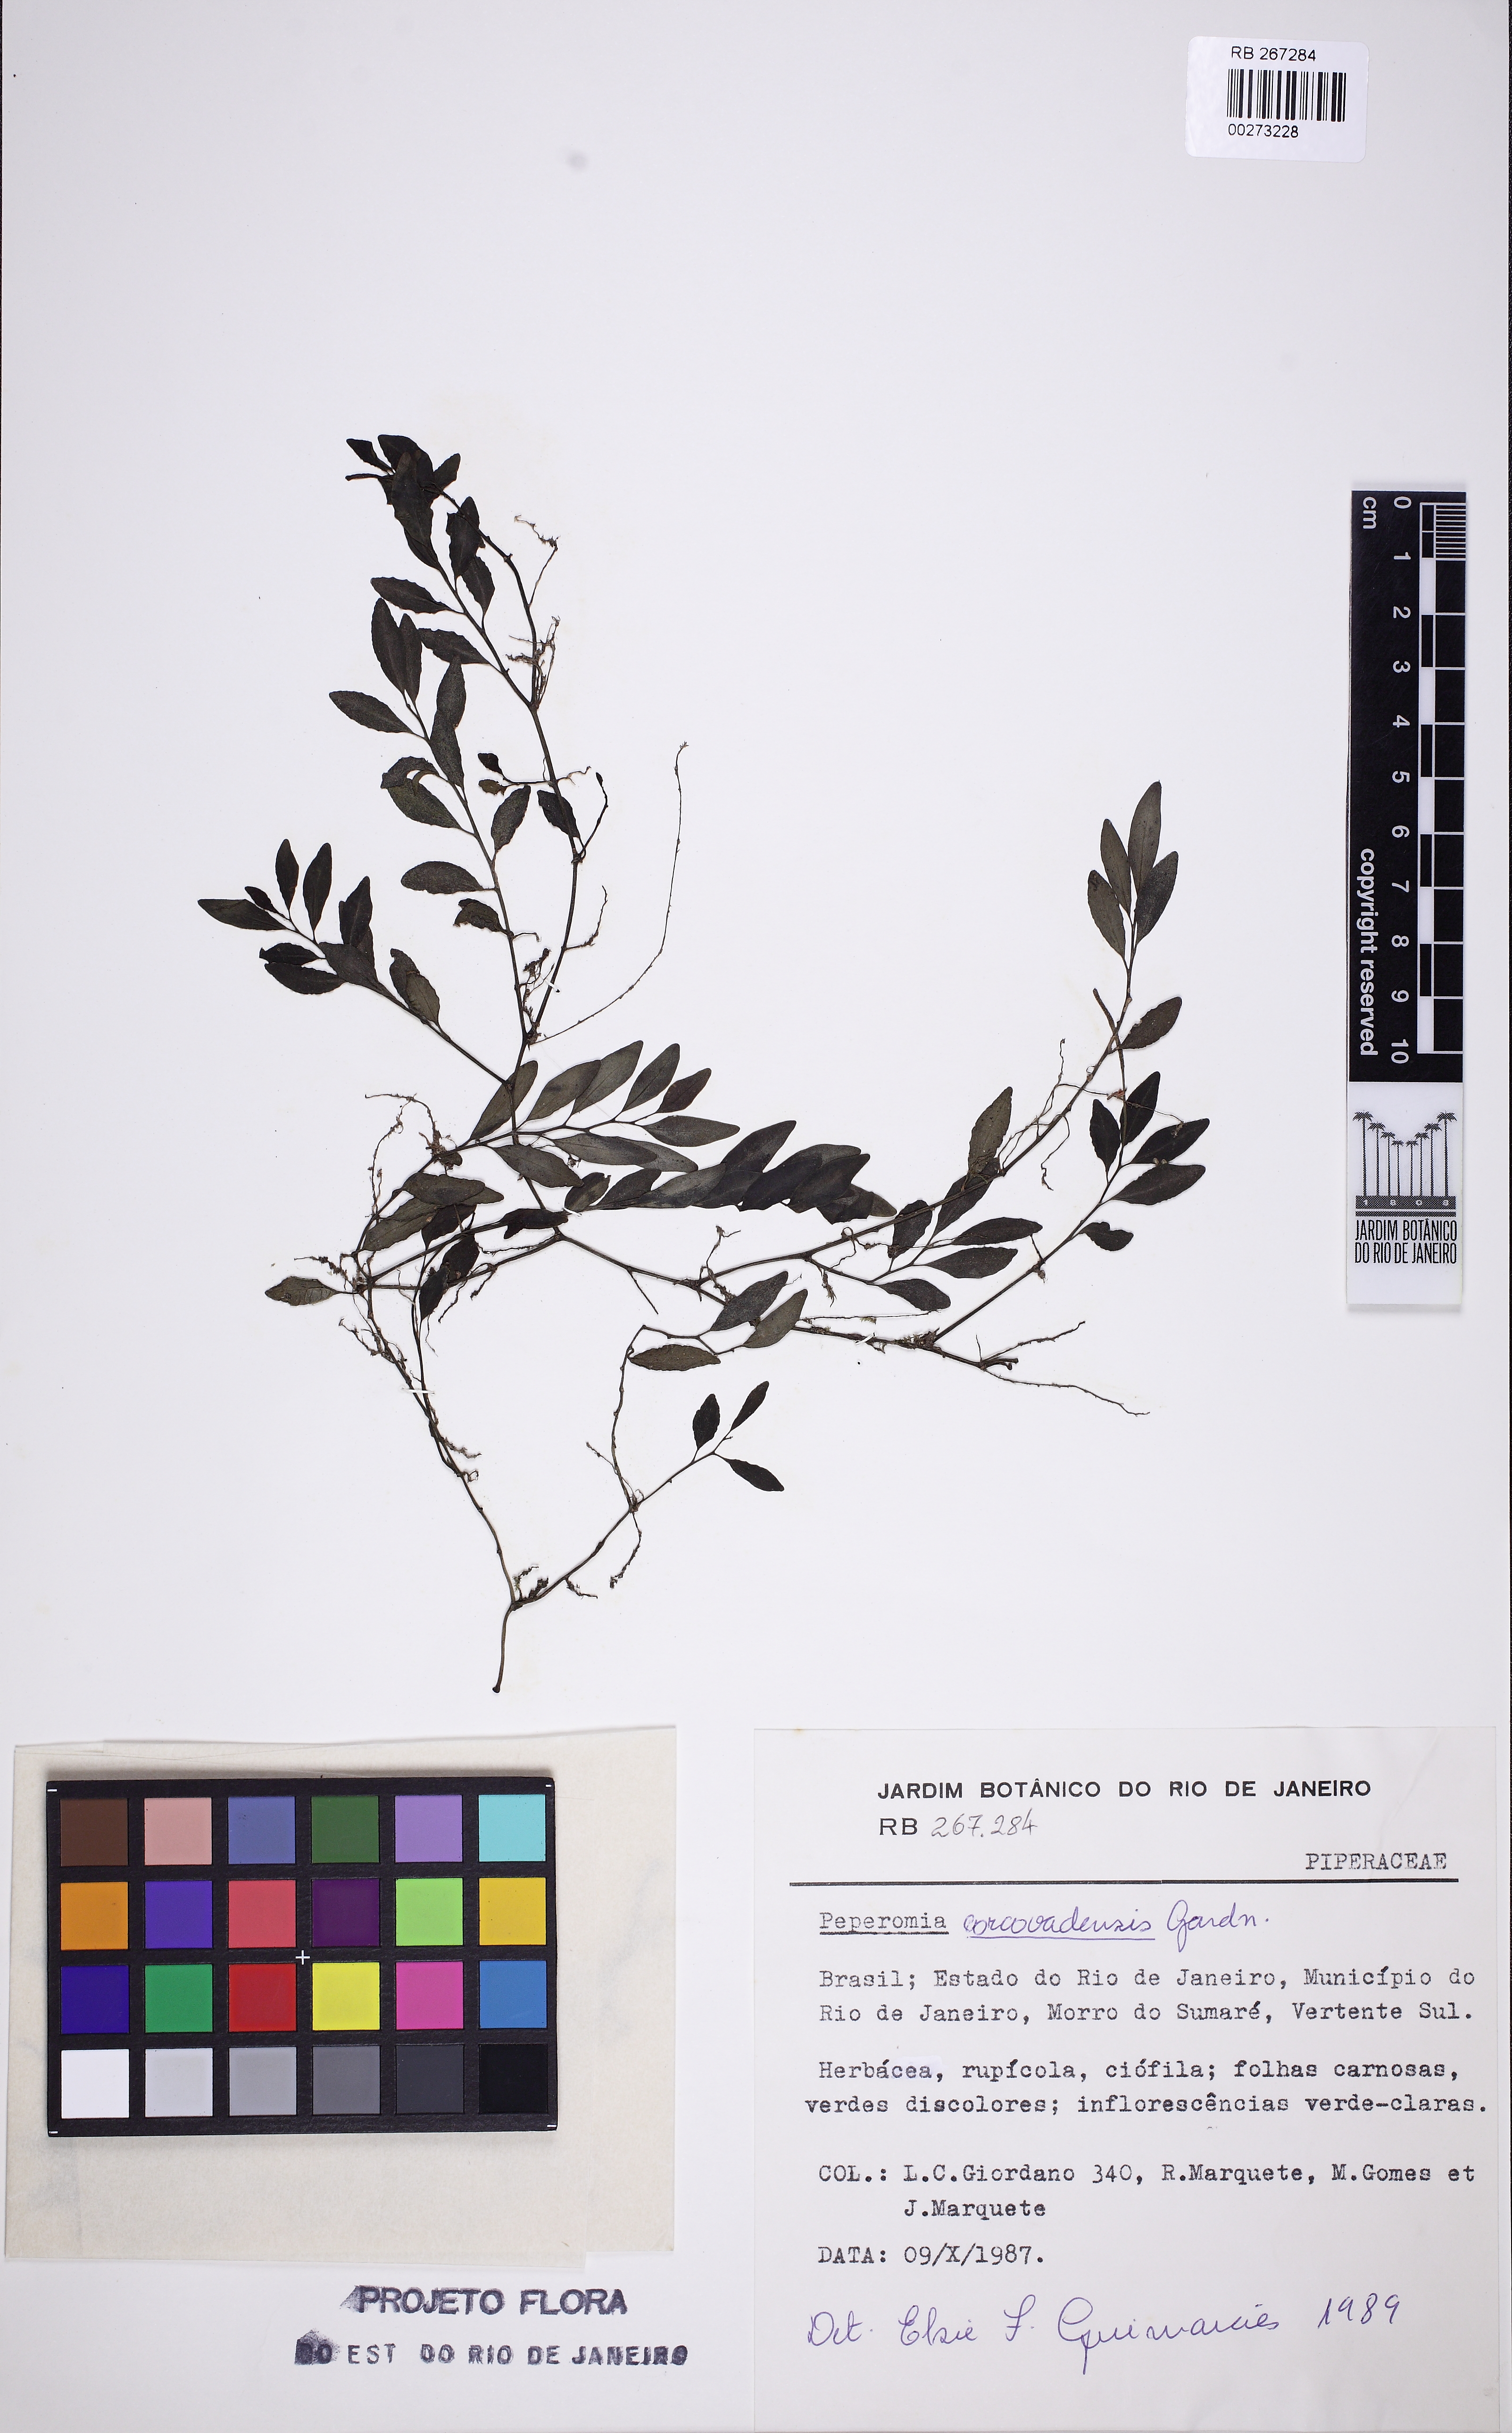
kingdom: Plantae
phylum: Tracheophyta
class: Magnoliopsida
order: Piperales
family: Piperaceae
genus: Peperomia
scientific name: Peperomia corcovadensis
